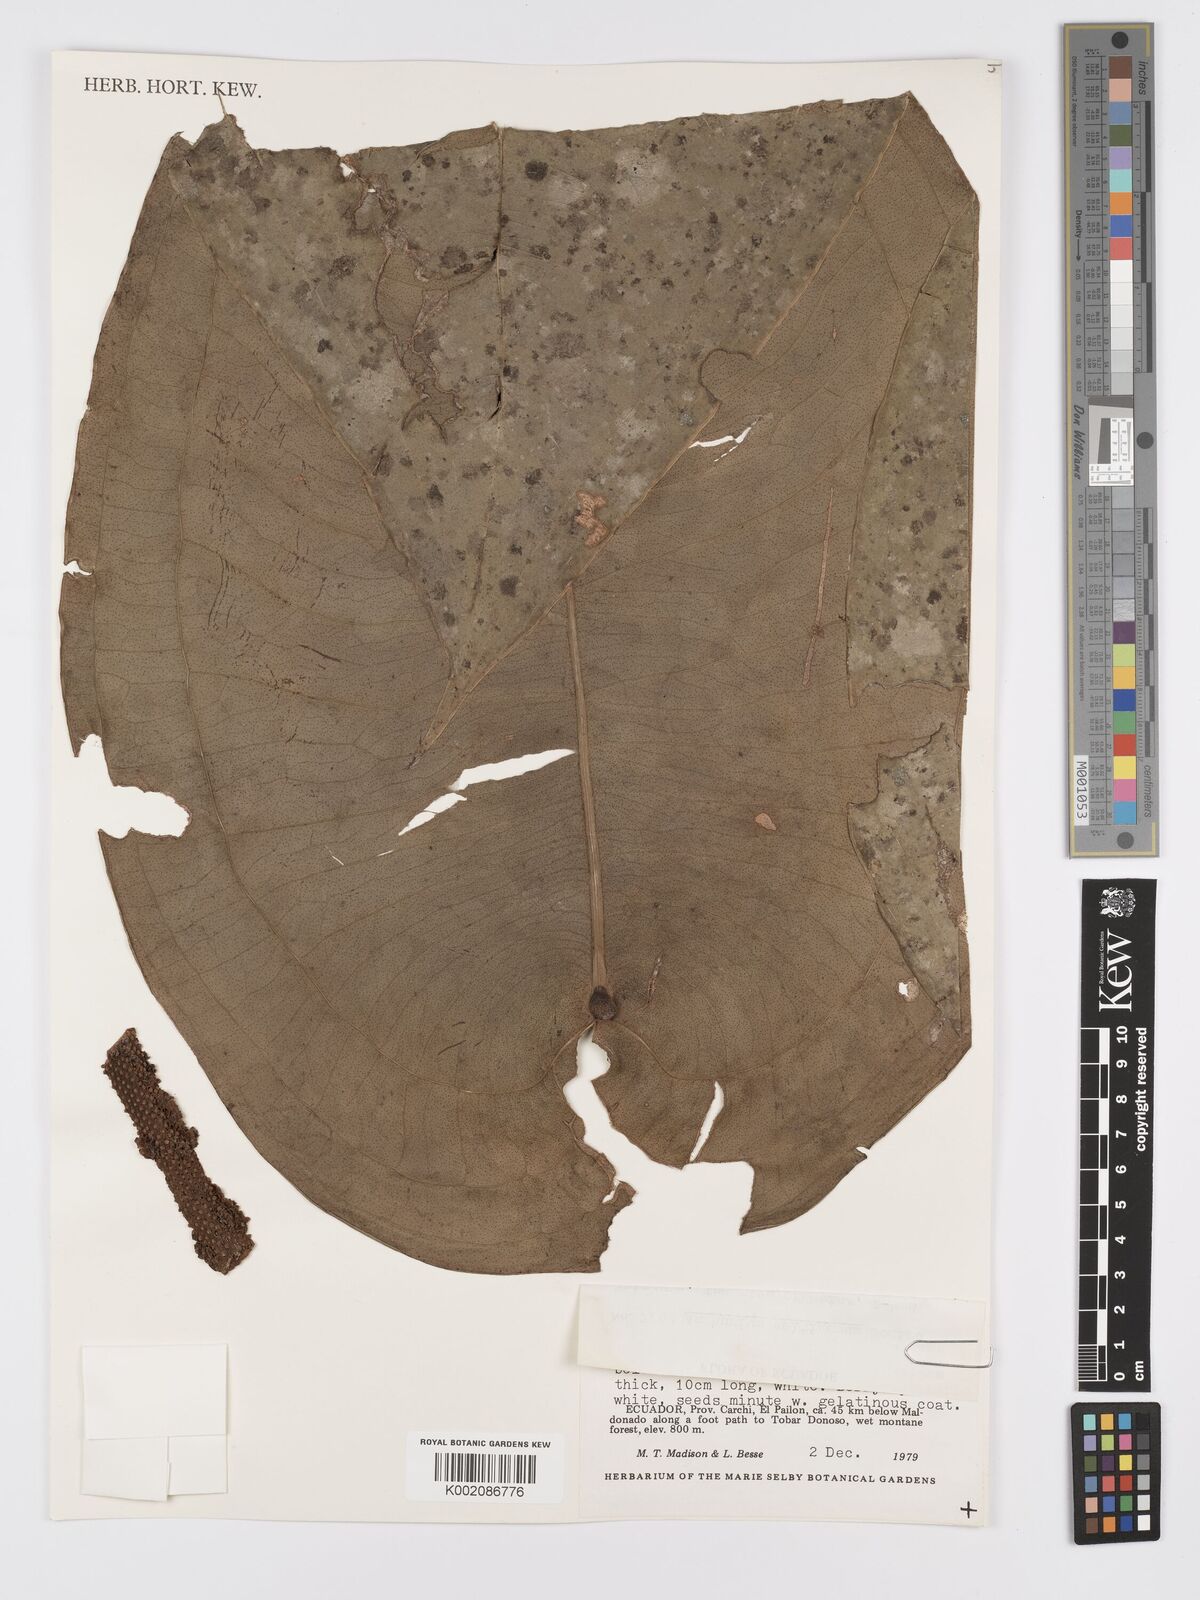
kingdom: Plantae
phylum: Tracheophyta
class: Liliopsida
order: Alismatales
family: Araceae
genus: Anthurium
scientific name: Anthurium peltigerum
